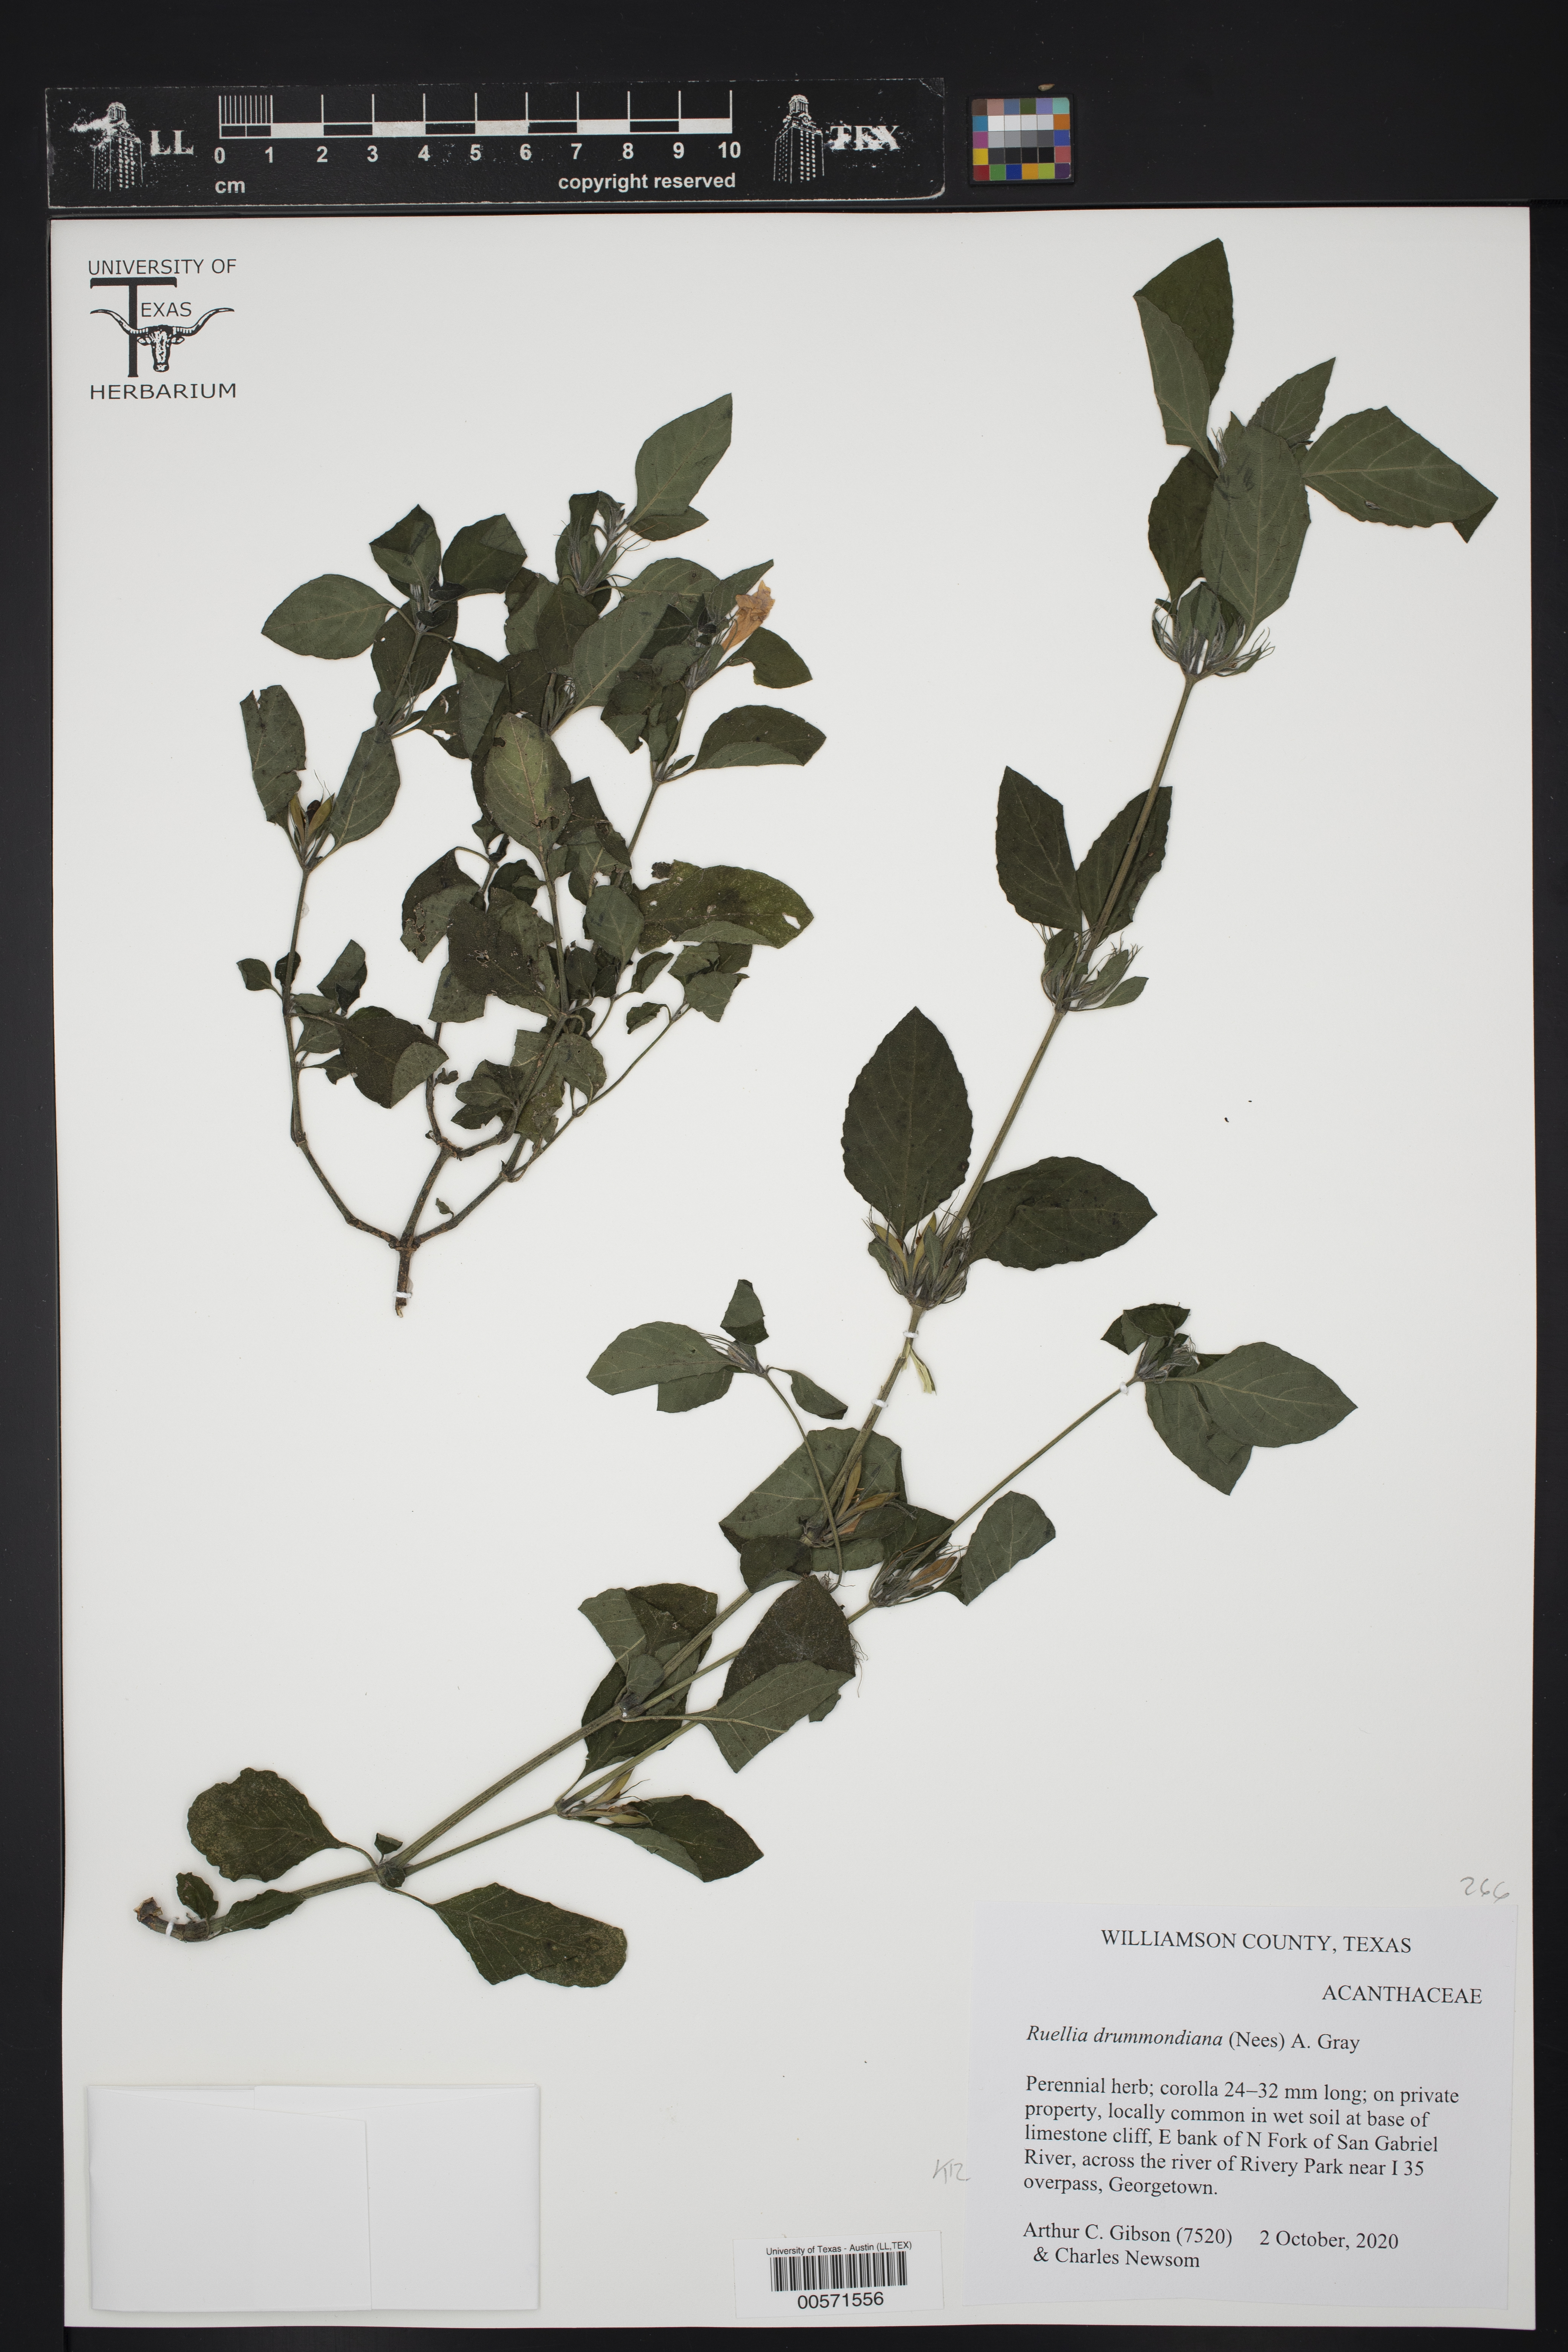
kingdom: Plantae
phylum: Tracheophyta
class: Magnoliopsida
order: Lamiales
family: Acanthaceae
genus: Ruellia
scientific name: Ruellia drummondiana
